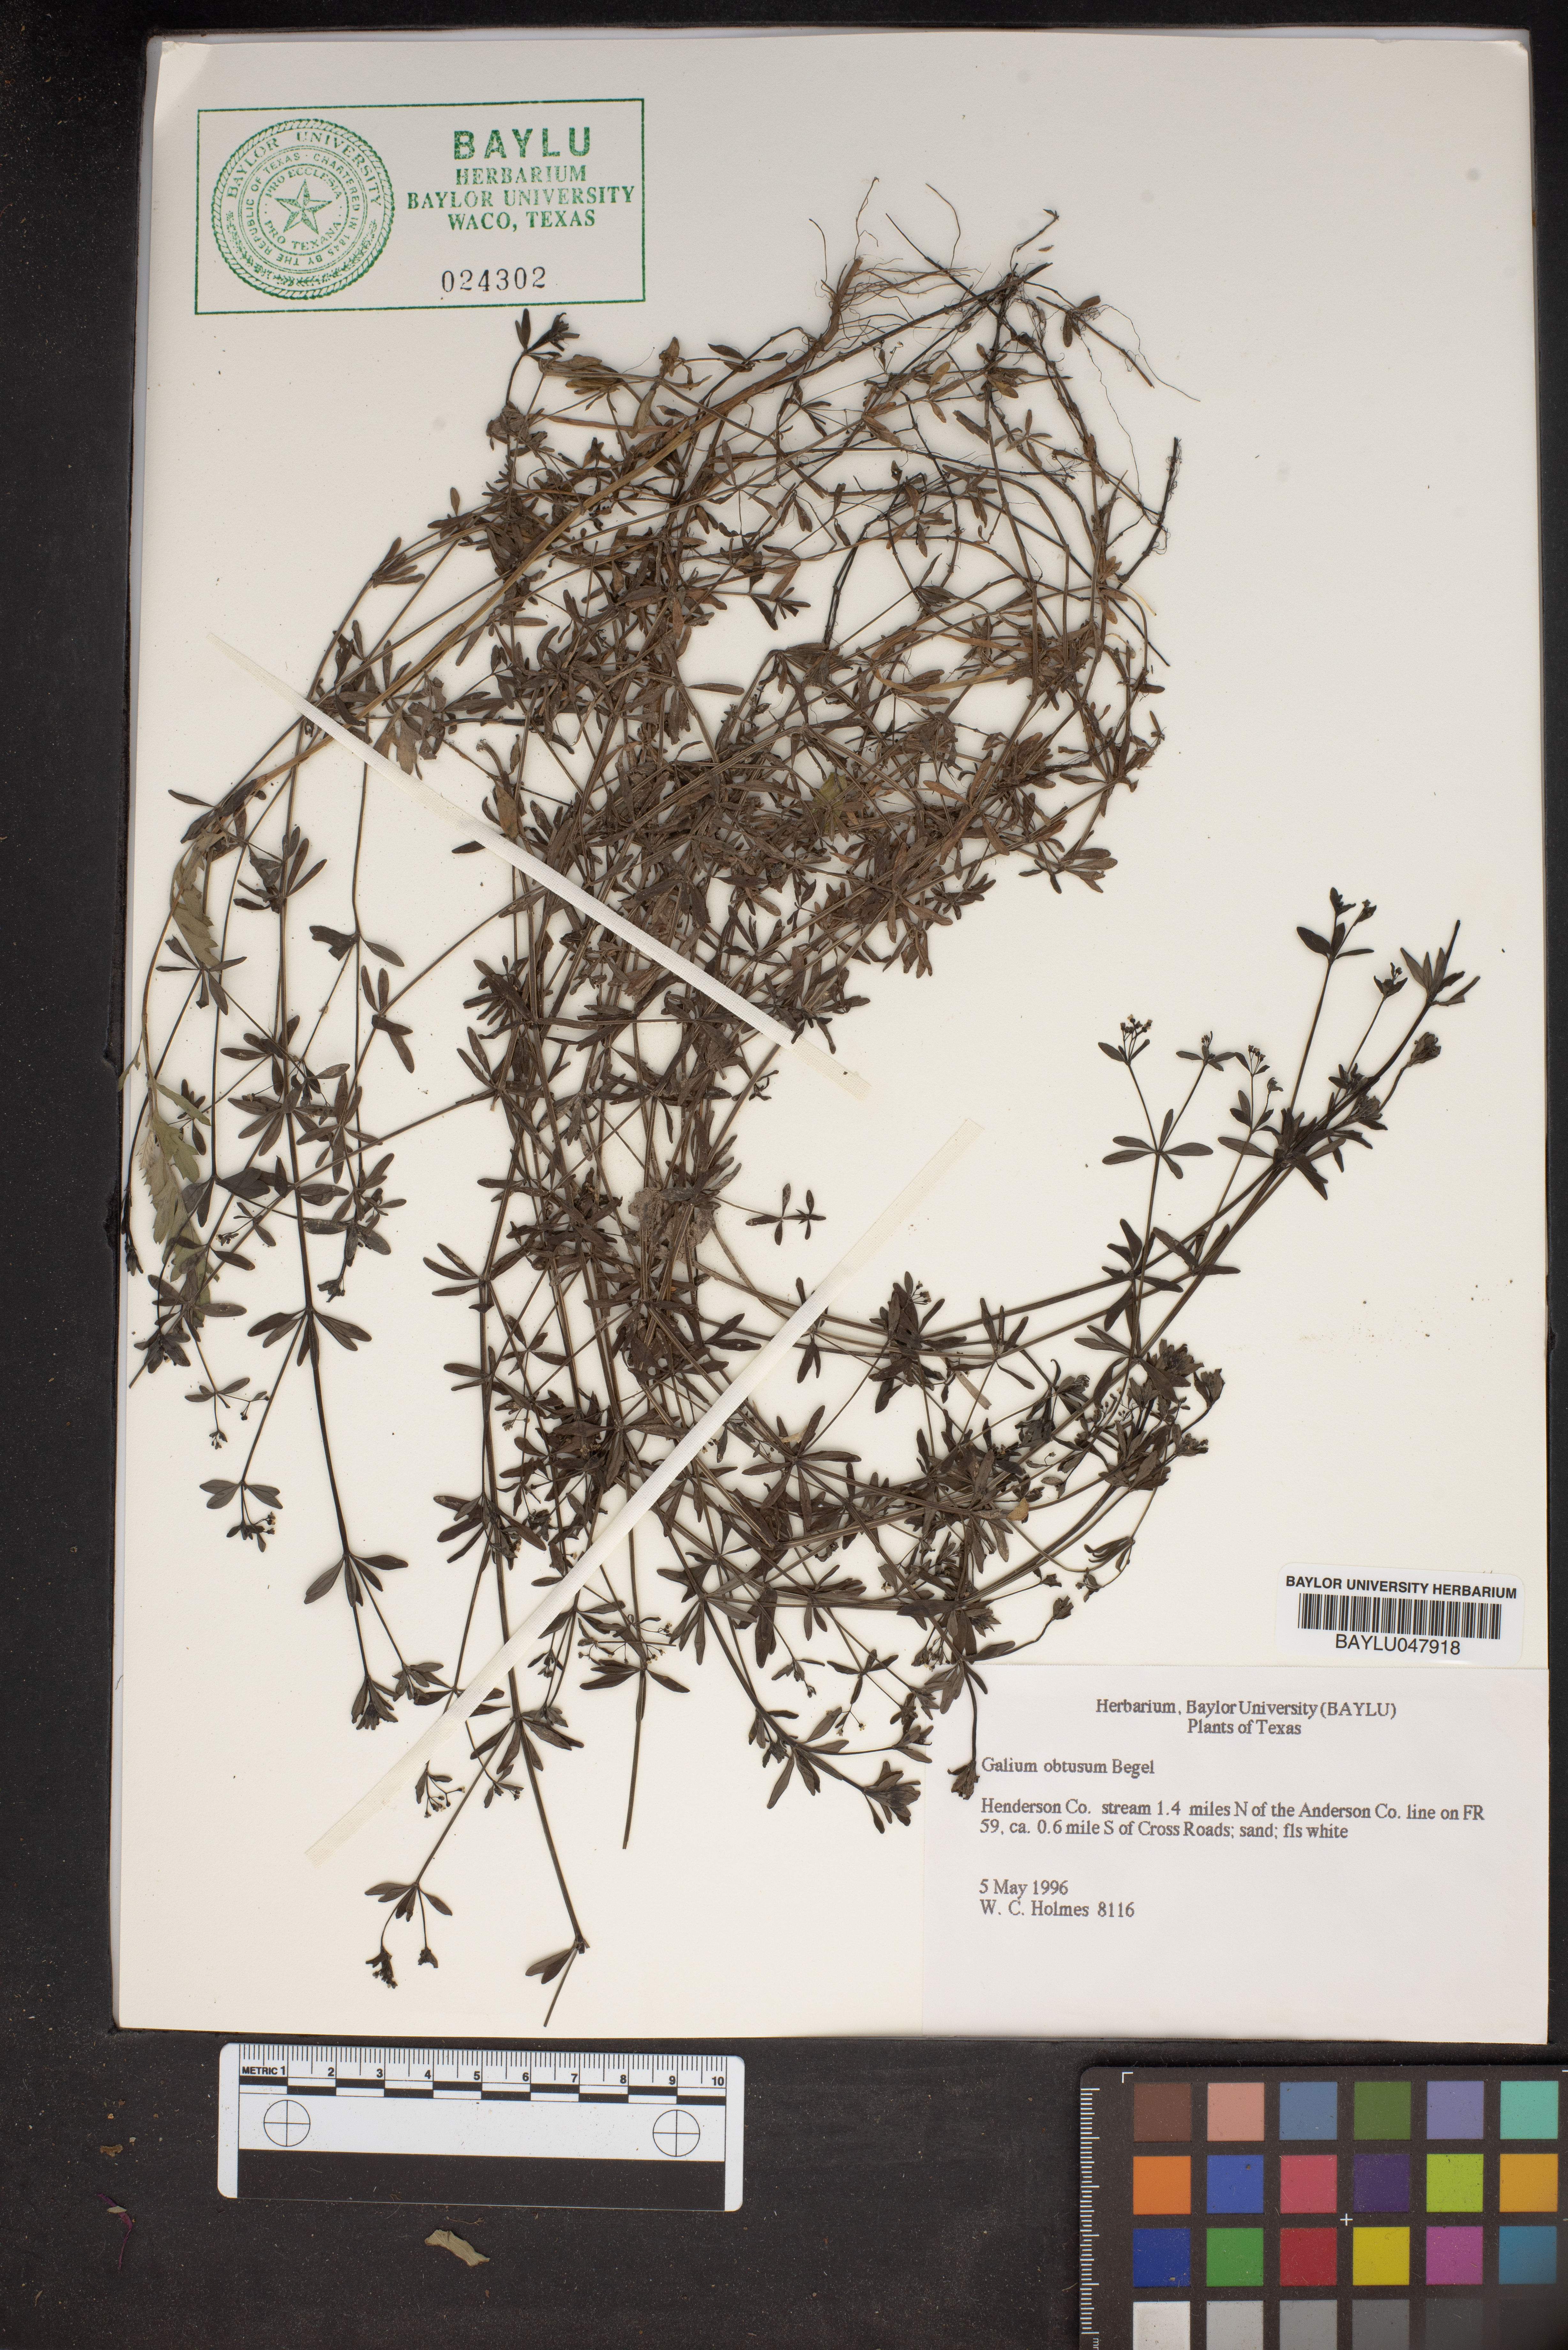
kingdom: Plantae
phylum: Tracheophyta
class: Magnoliopsida
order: Gentianales
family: Rubiaceae
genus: Galium
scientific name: Galium obtusum
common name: Blunt-leaved bedstraw
